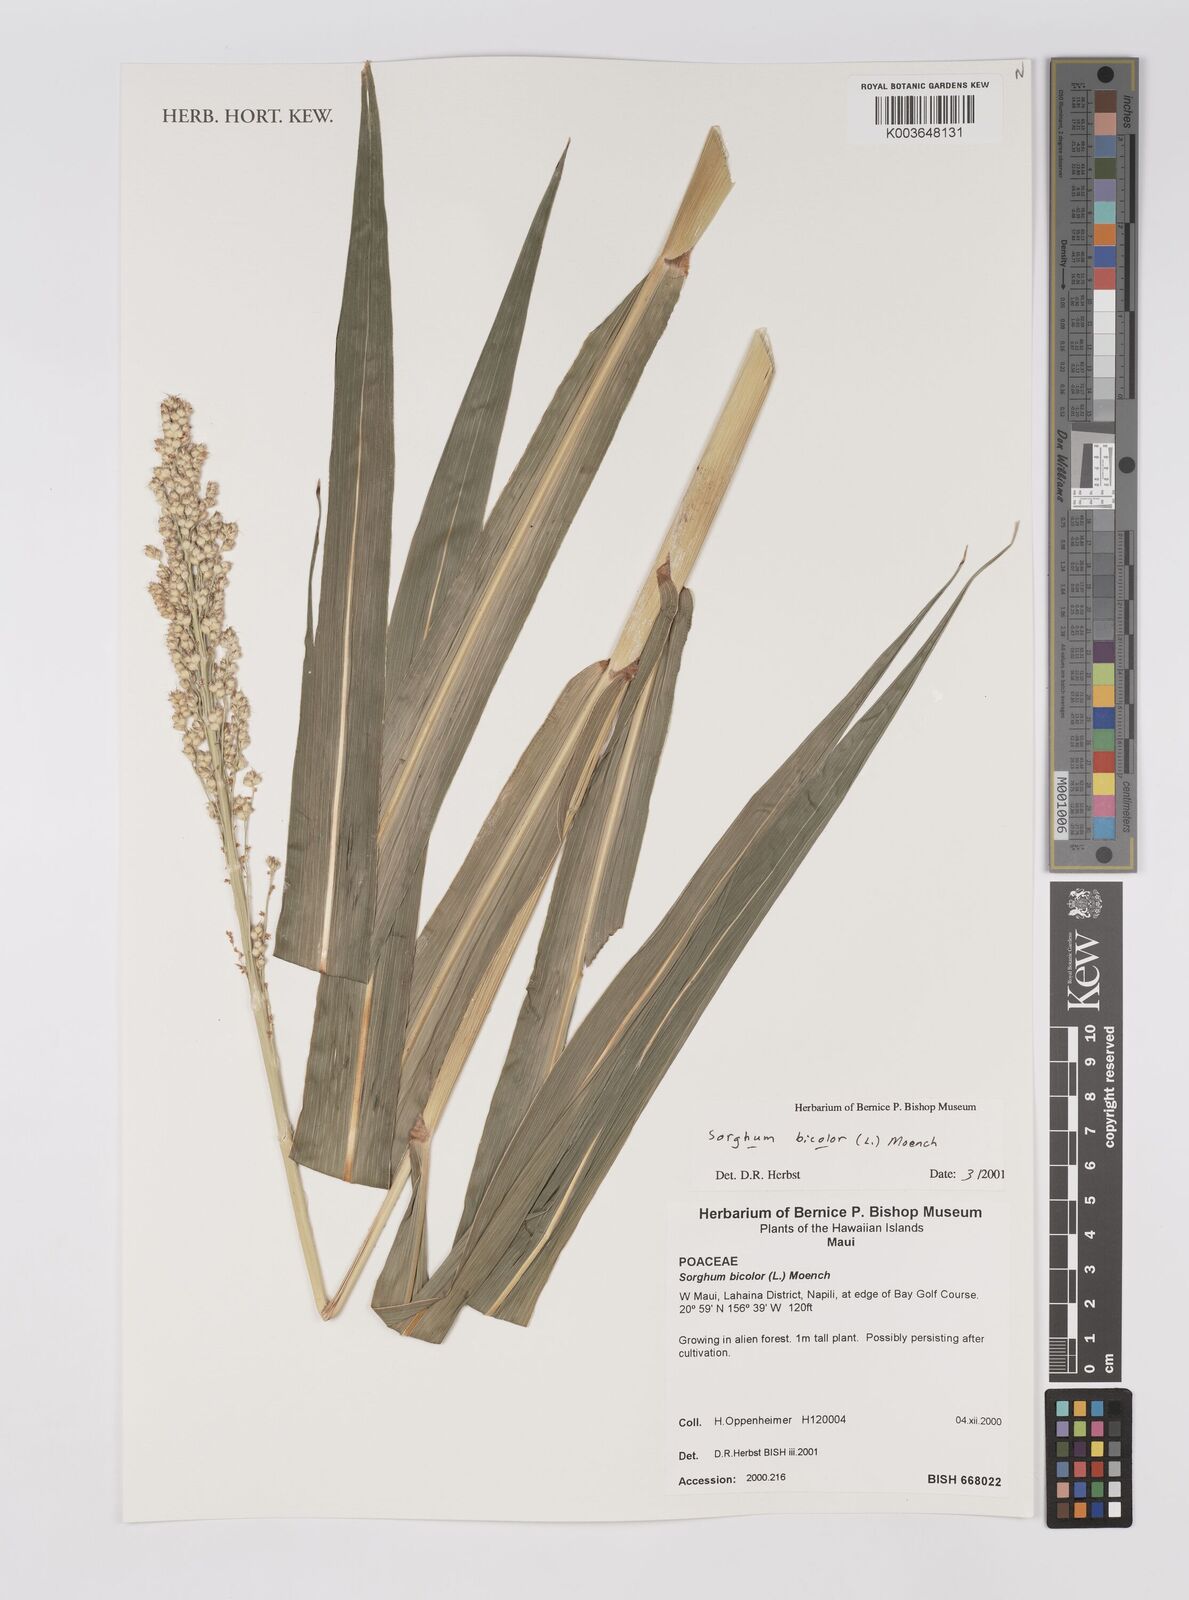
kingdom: Plantae
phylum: Tracheophyta
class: Liliopsida
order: Poales
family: Poaceae
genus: Sorghum
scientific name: Sorghum bicolor
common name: Sorghum
